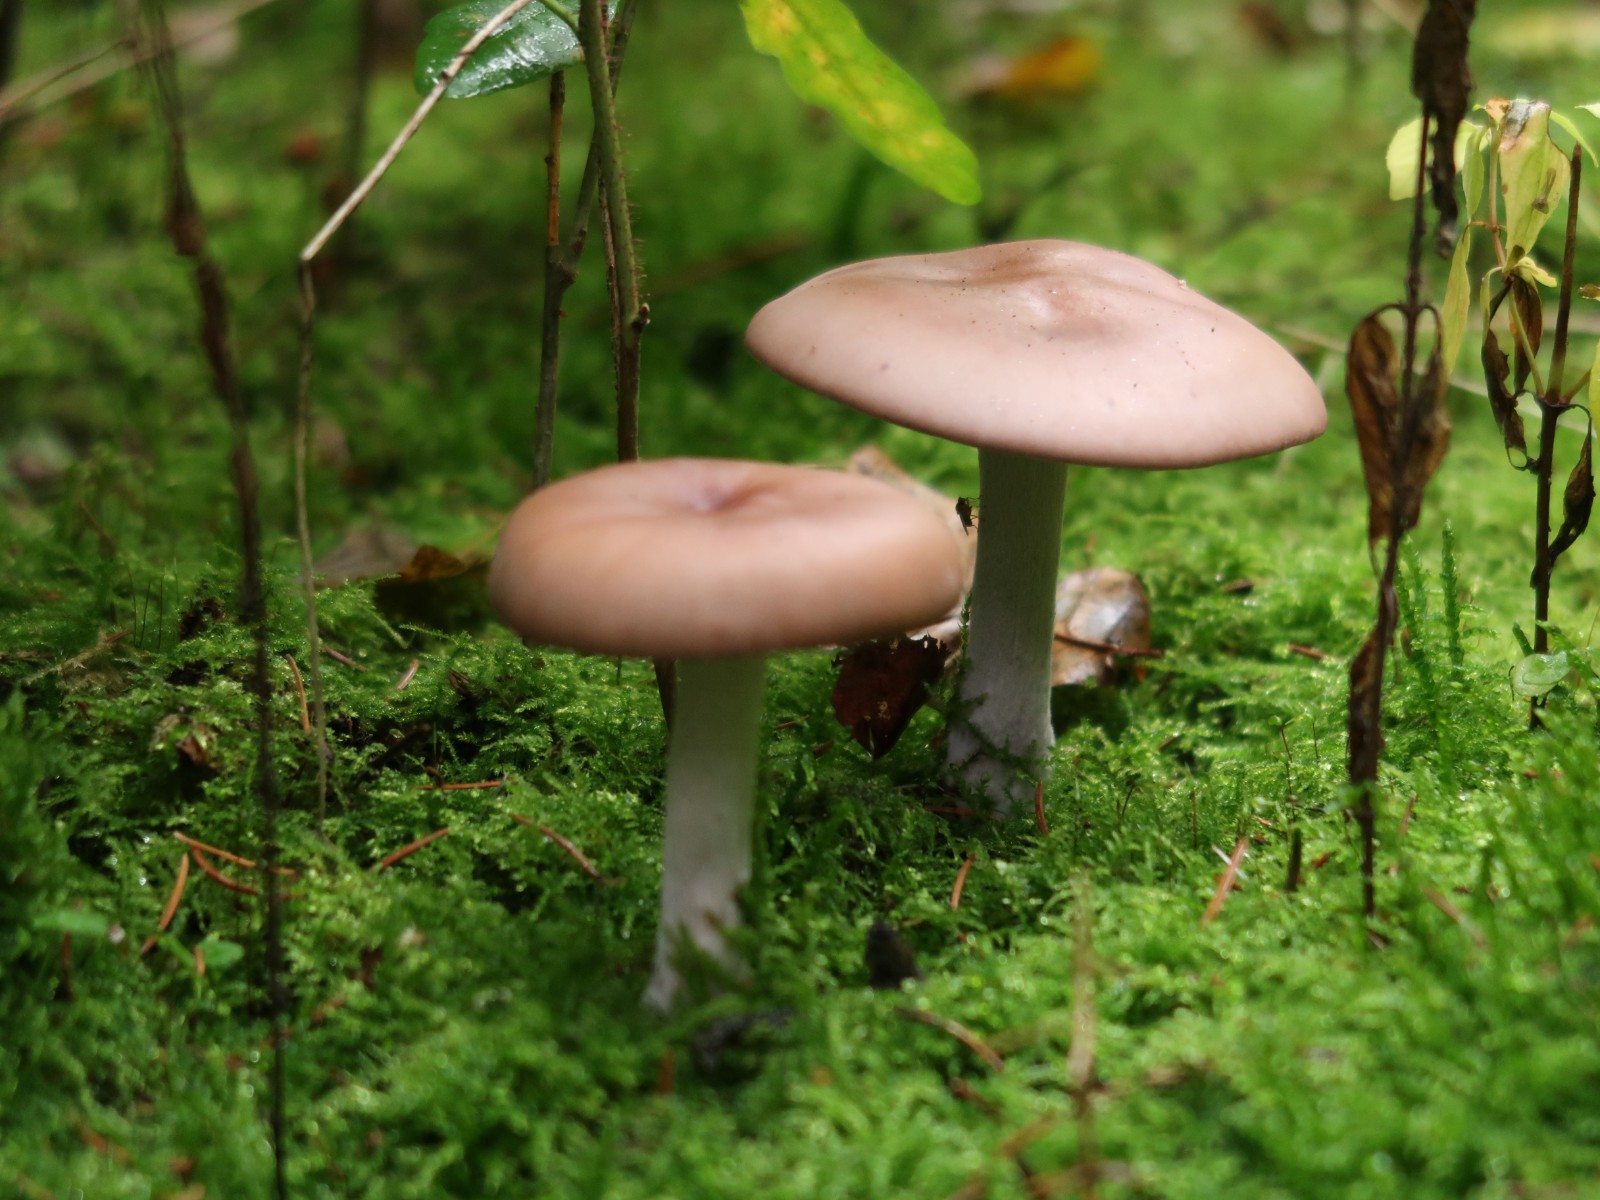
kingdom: Fungi
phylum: Basidiomycota
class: Agaricomycetes
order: Agaricales
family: Tricholomataceae
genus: Lepista
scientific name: Lepista nuda
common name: violet hekseringshat
